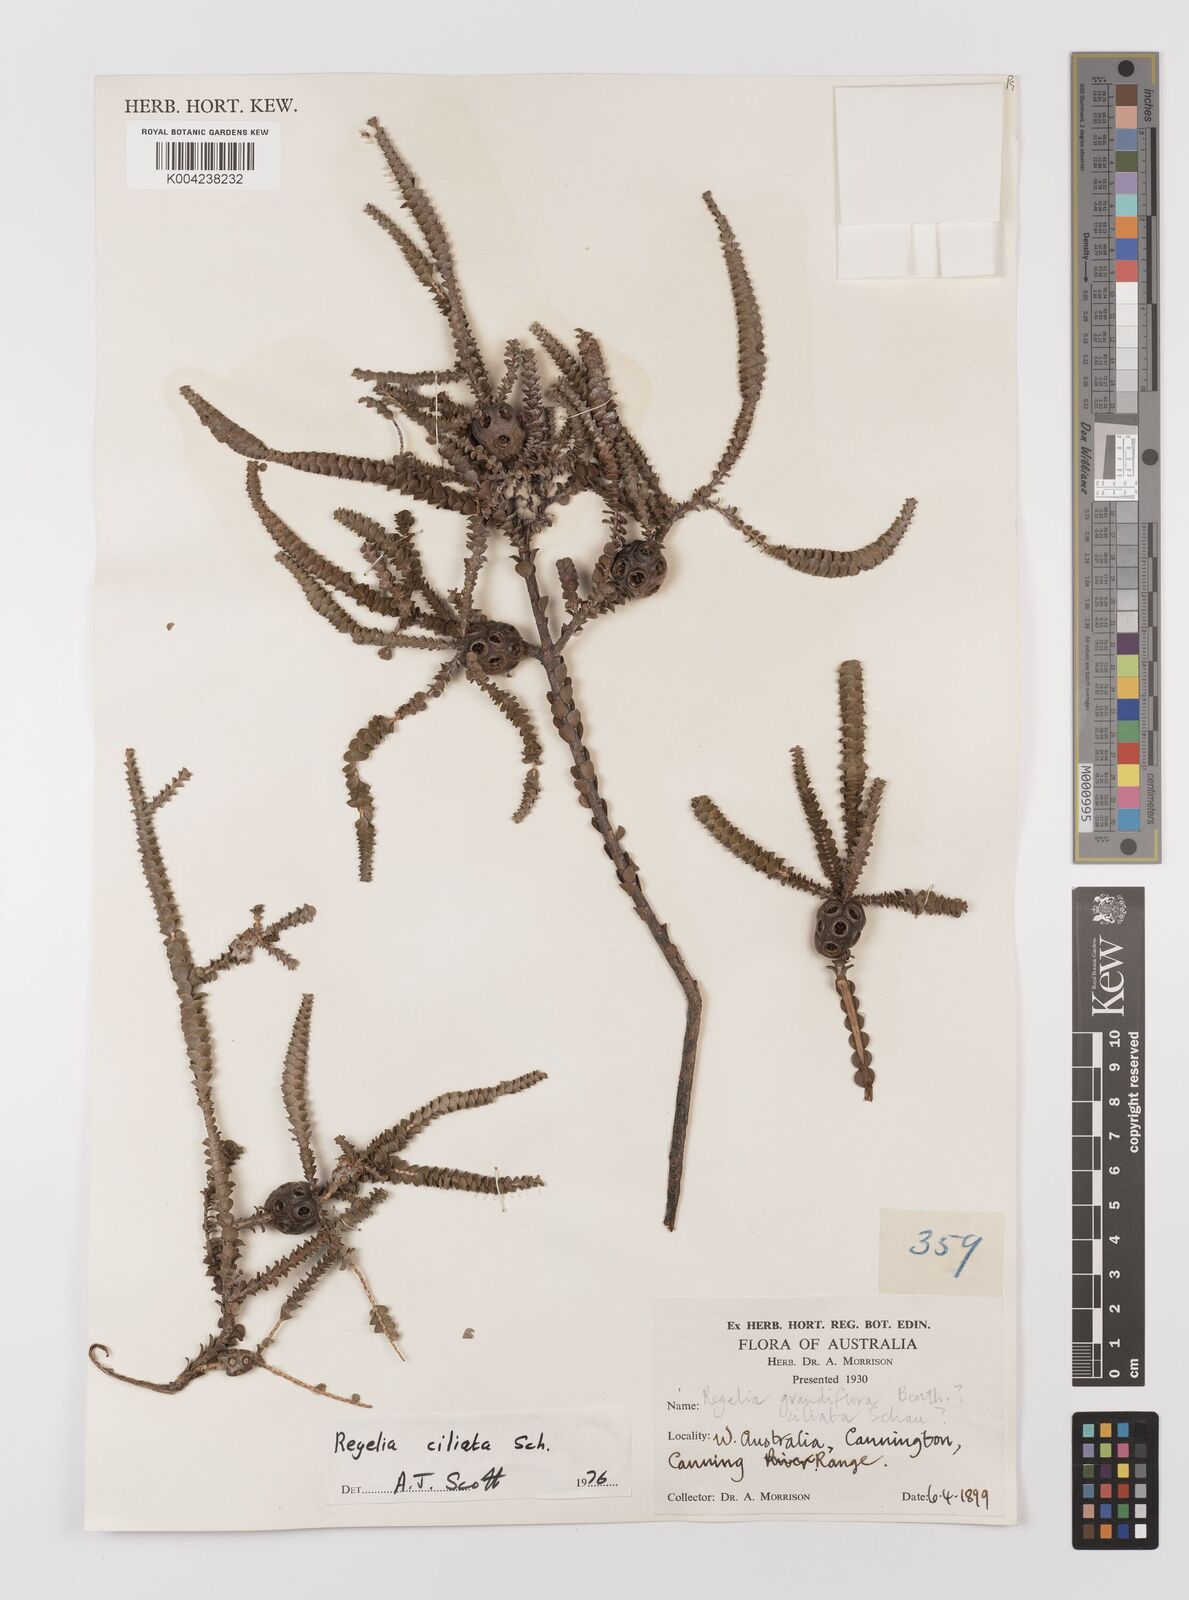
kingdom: Plantae
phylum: Tracheophyta
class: Magnoliopsida
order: Myrtales
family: Myrtaceae
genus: Melaleuca
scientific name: Melaleuca crossota
